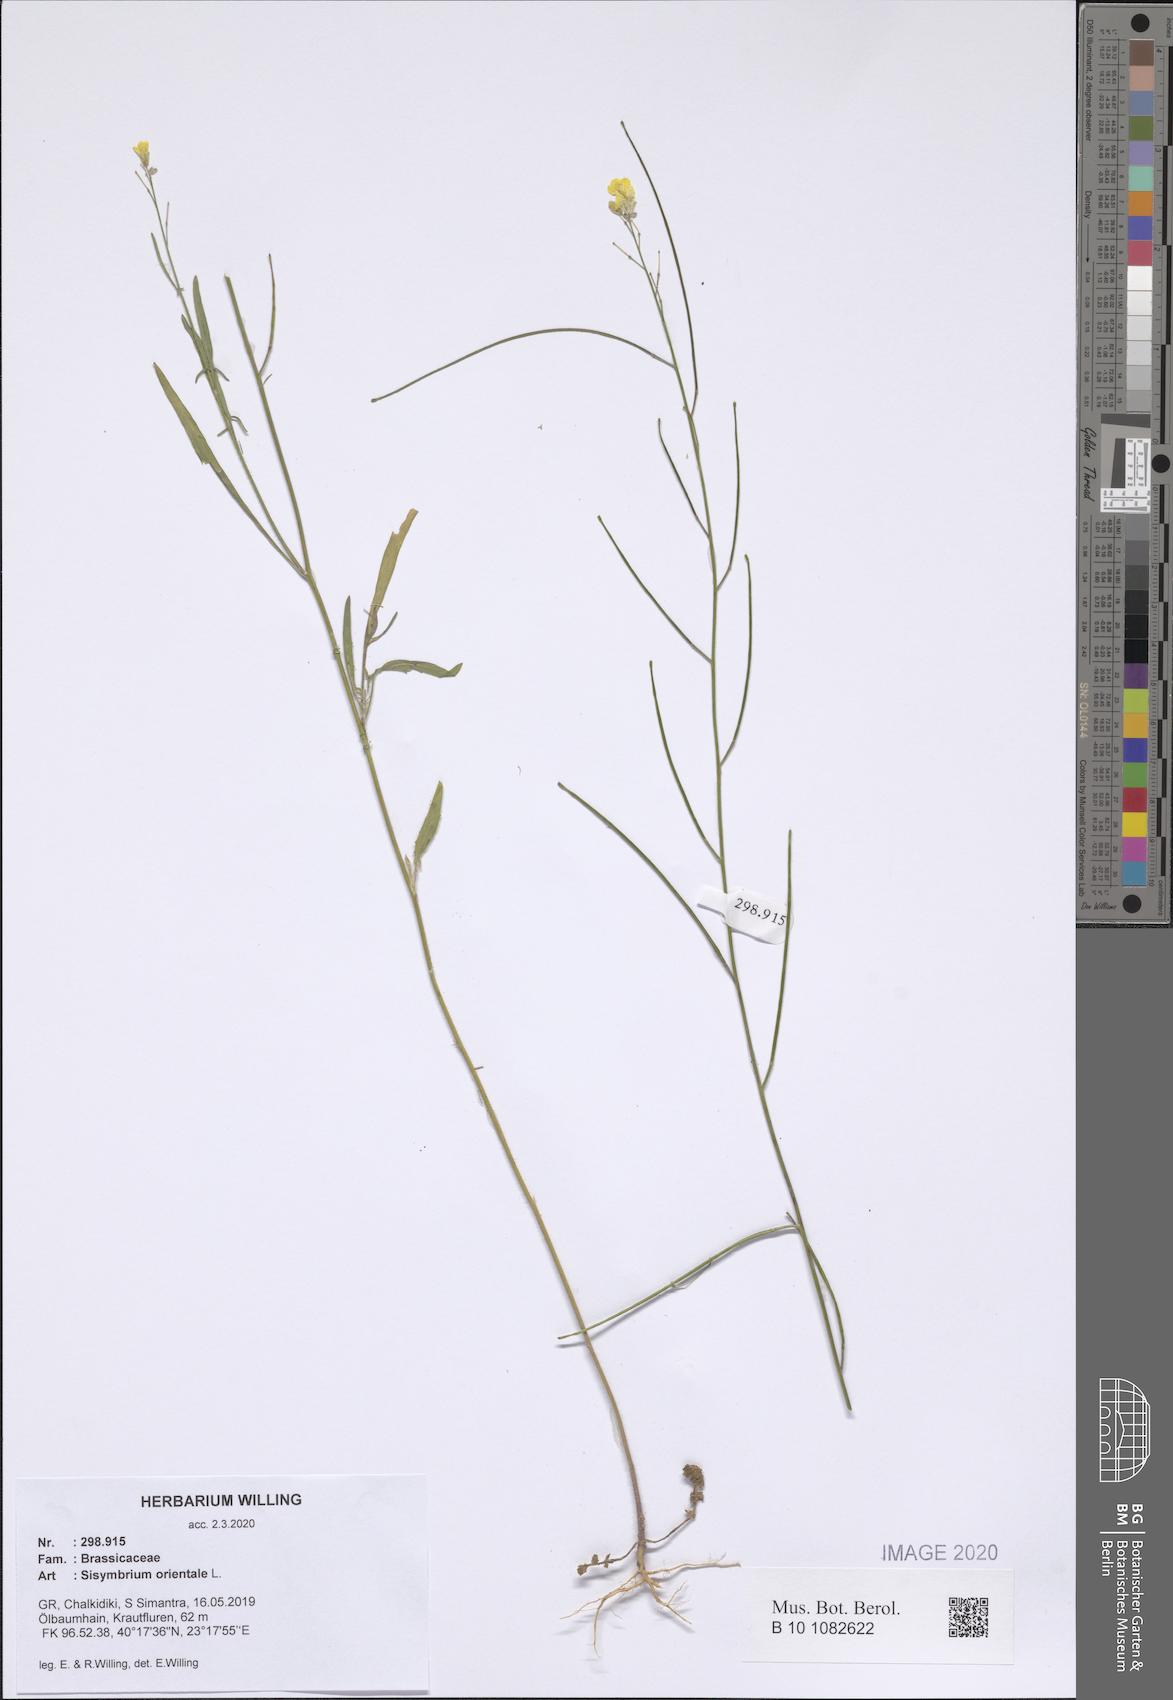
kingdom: Plantae
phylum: Tracheophyta
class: Magnoliopsida
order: Brassicales
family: Brassicaceae
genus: Sisymbrium
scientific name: Sisymbrium orientale
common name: Eastern rocket
